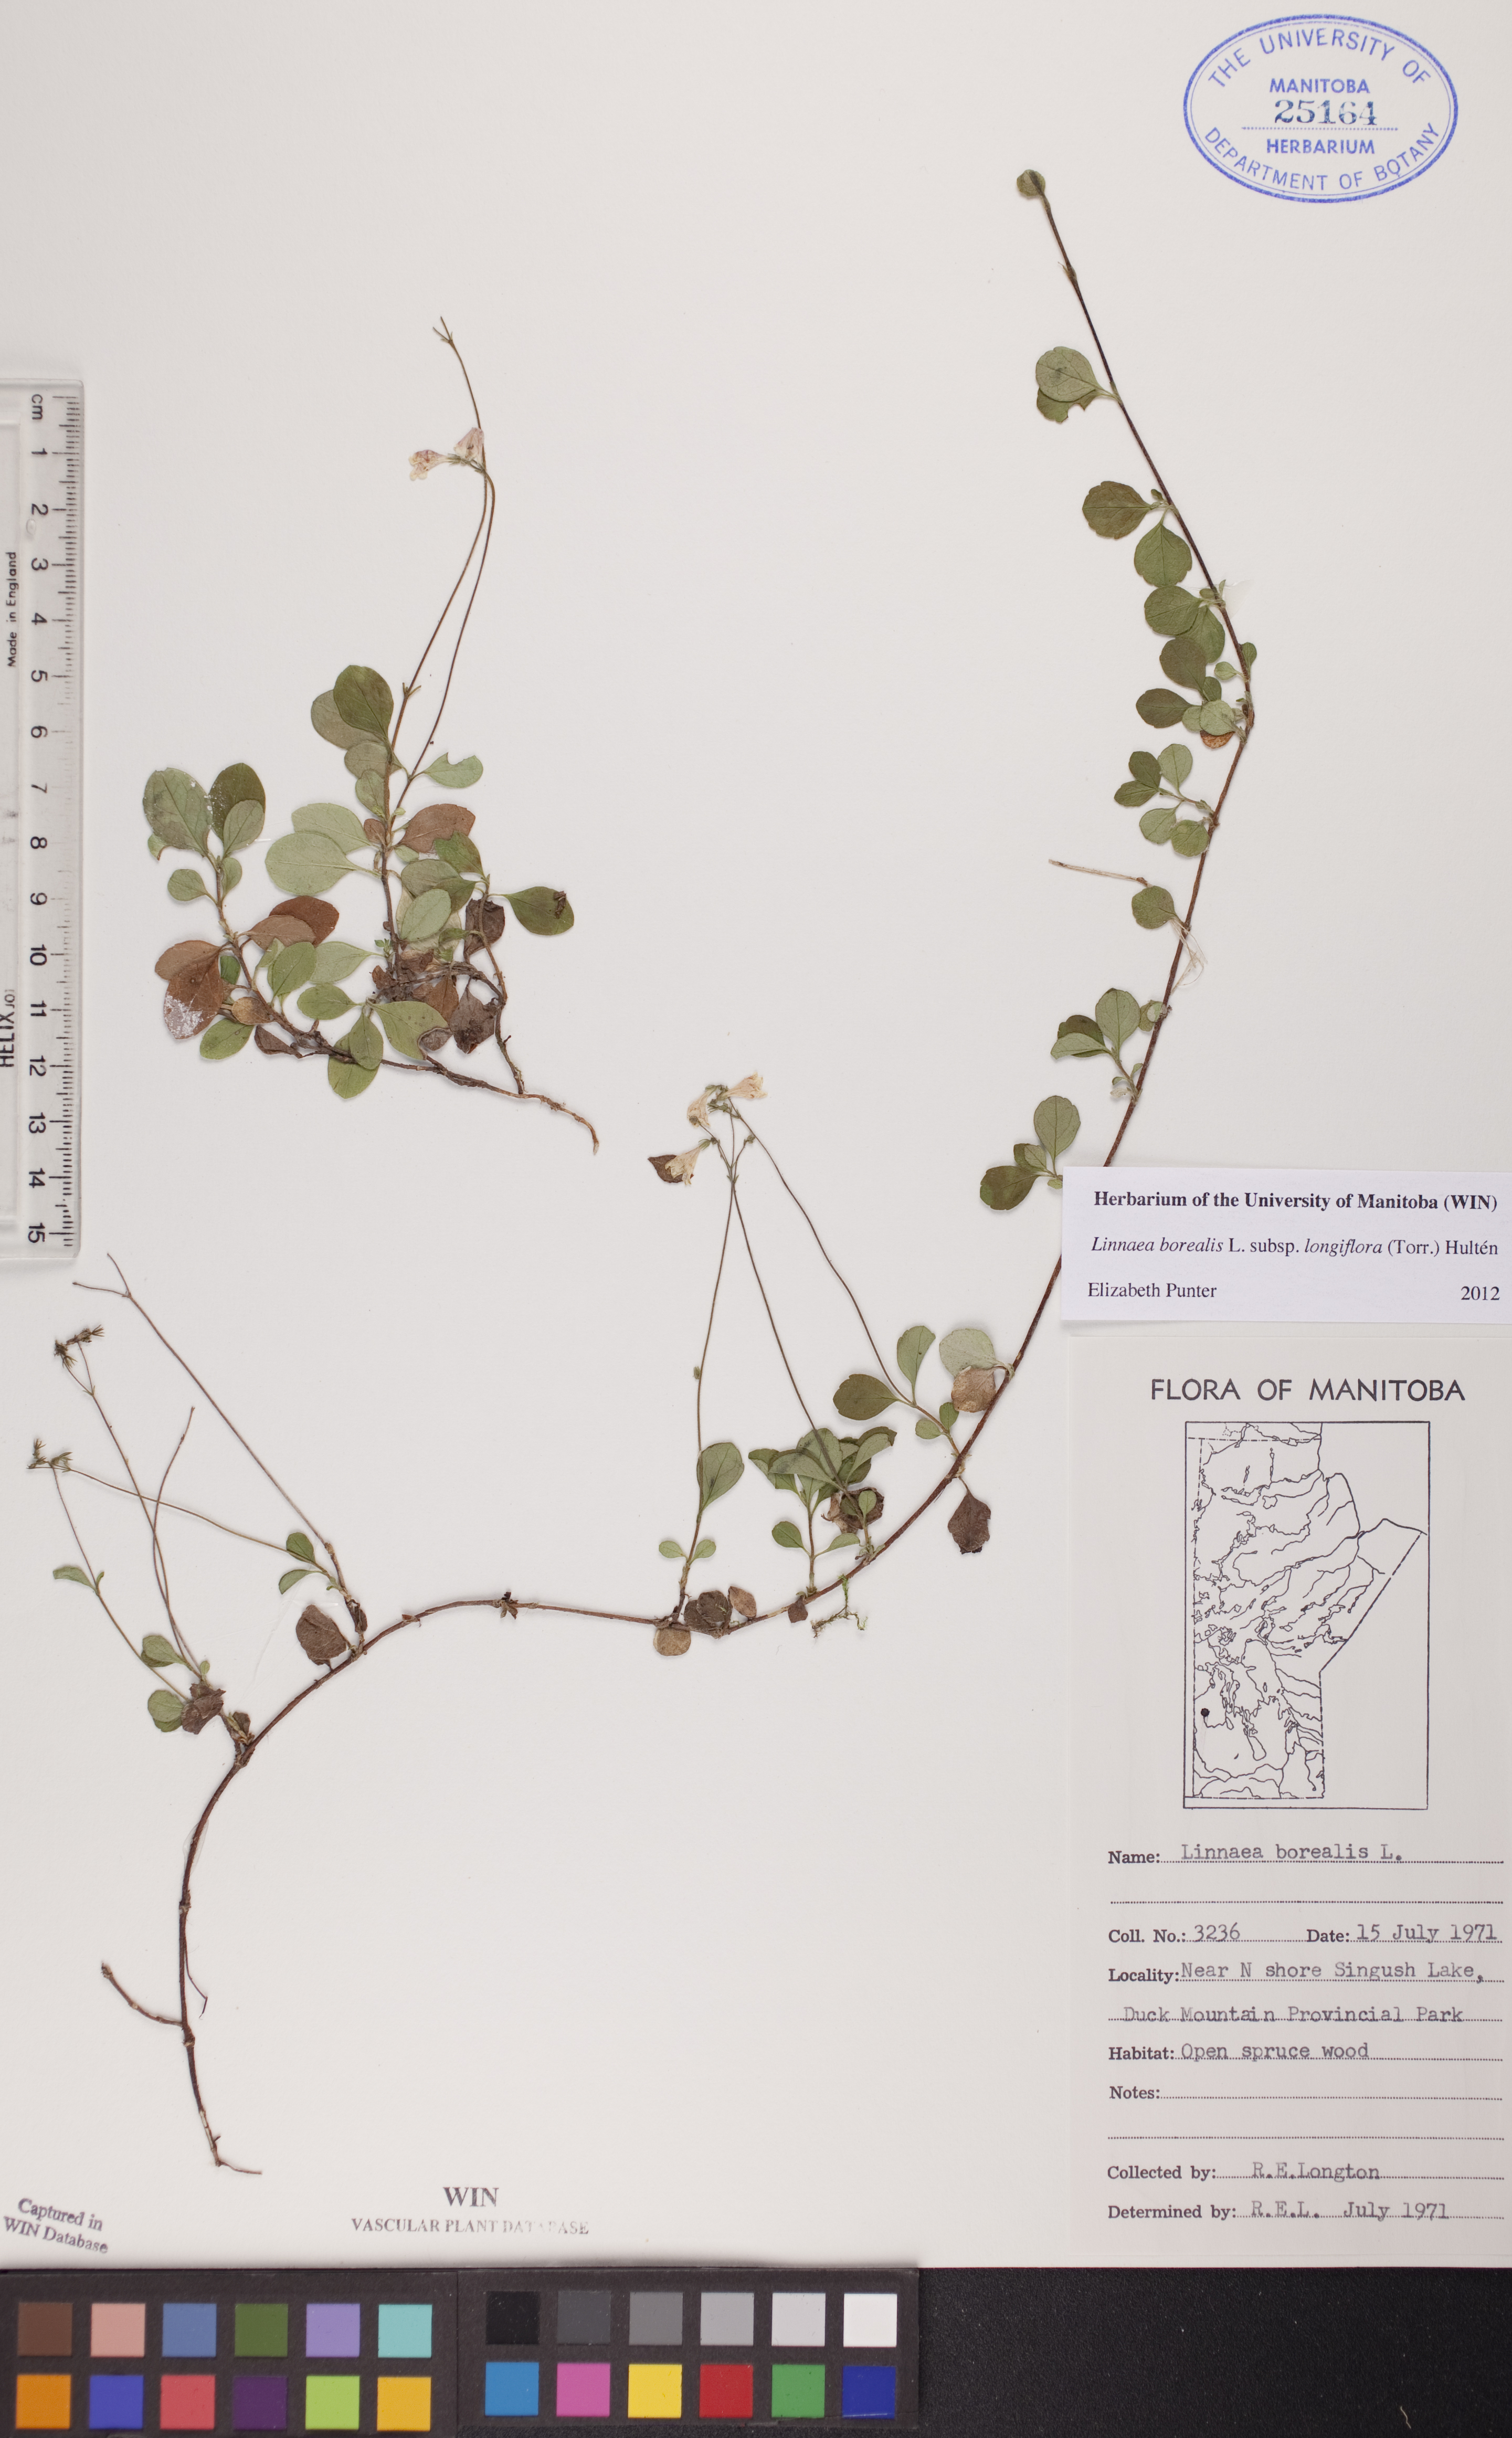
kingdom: Plantae
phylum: Tracheophyta
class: Magnoliopsida
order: Dipsacales
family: Caprifoliaceae
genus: Linnaea
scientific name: Linnaea borealis
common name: Twinflower
